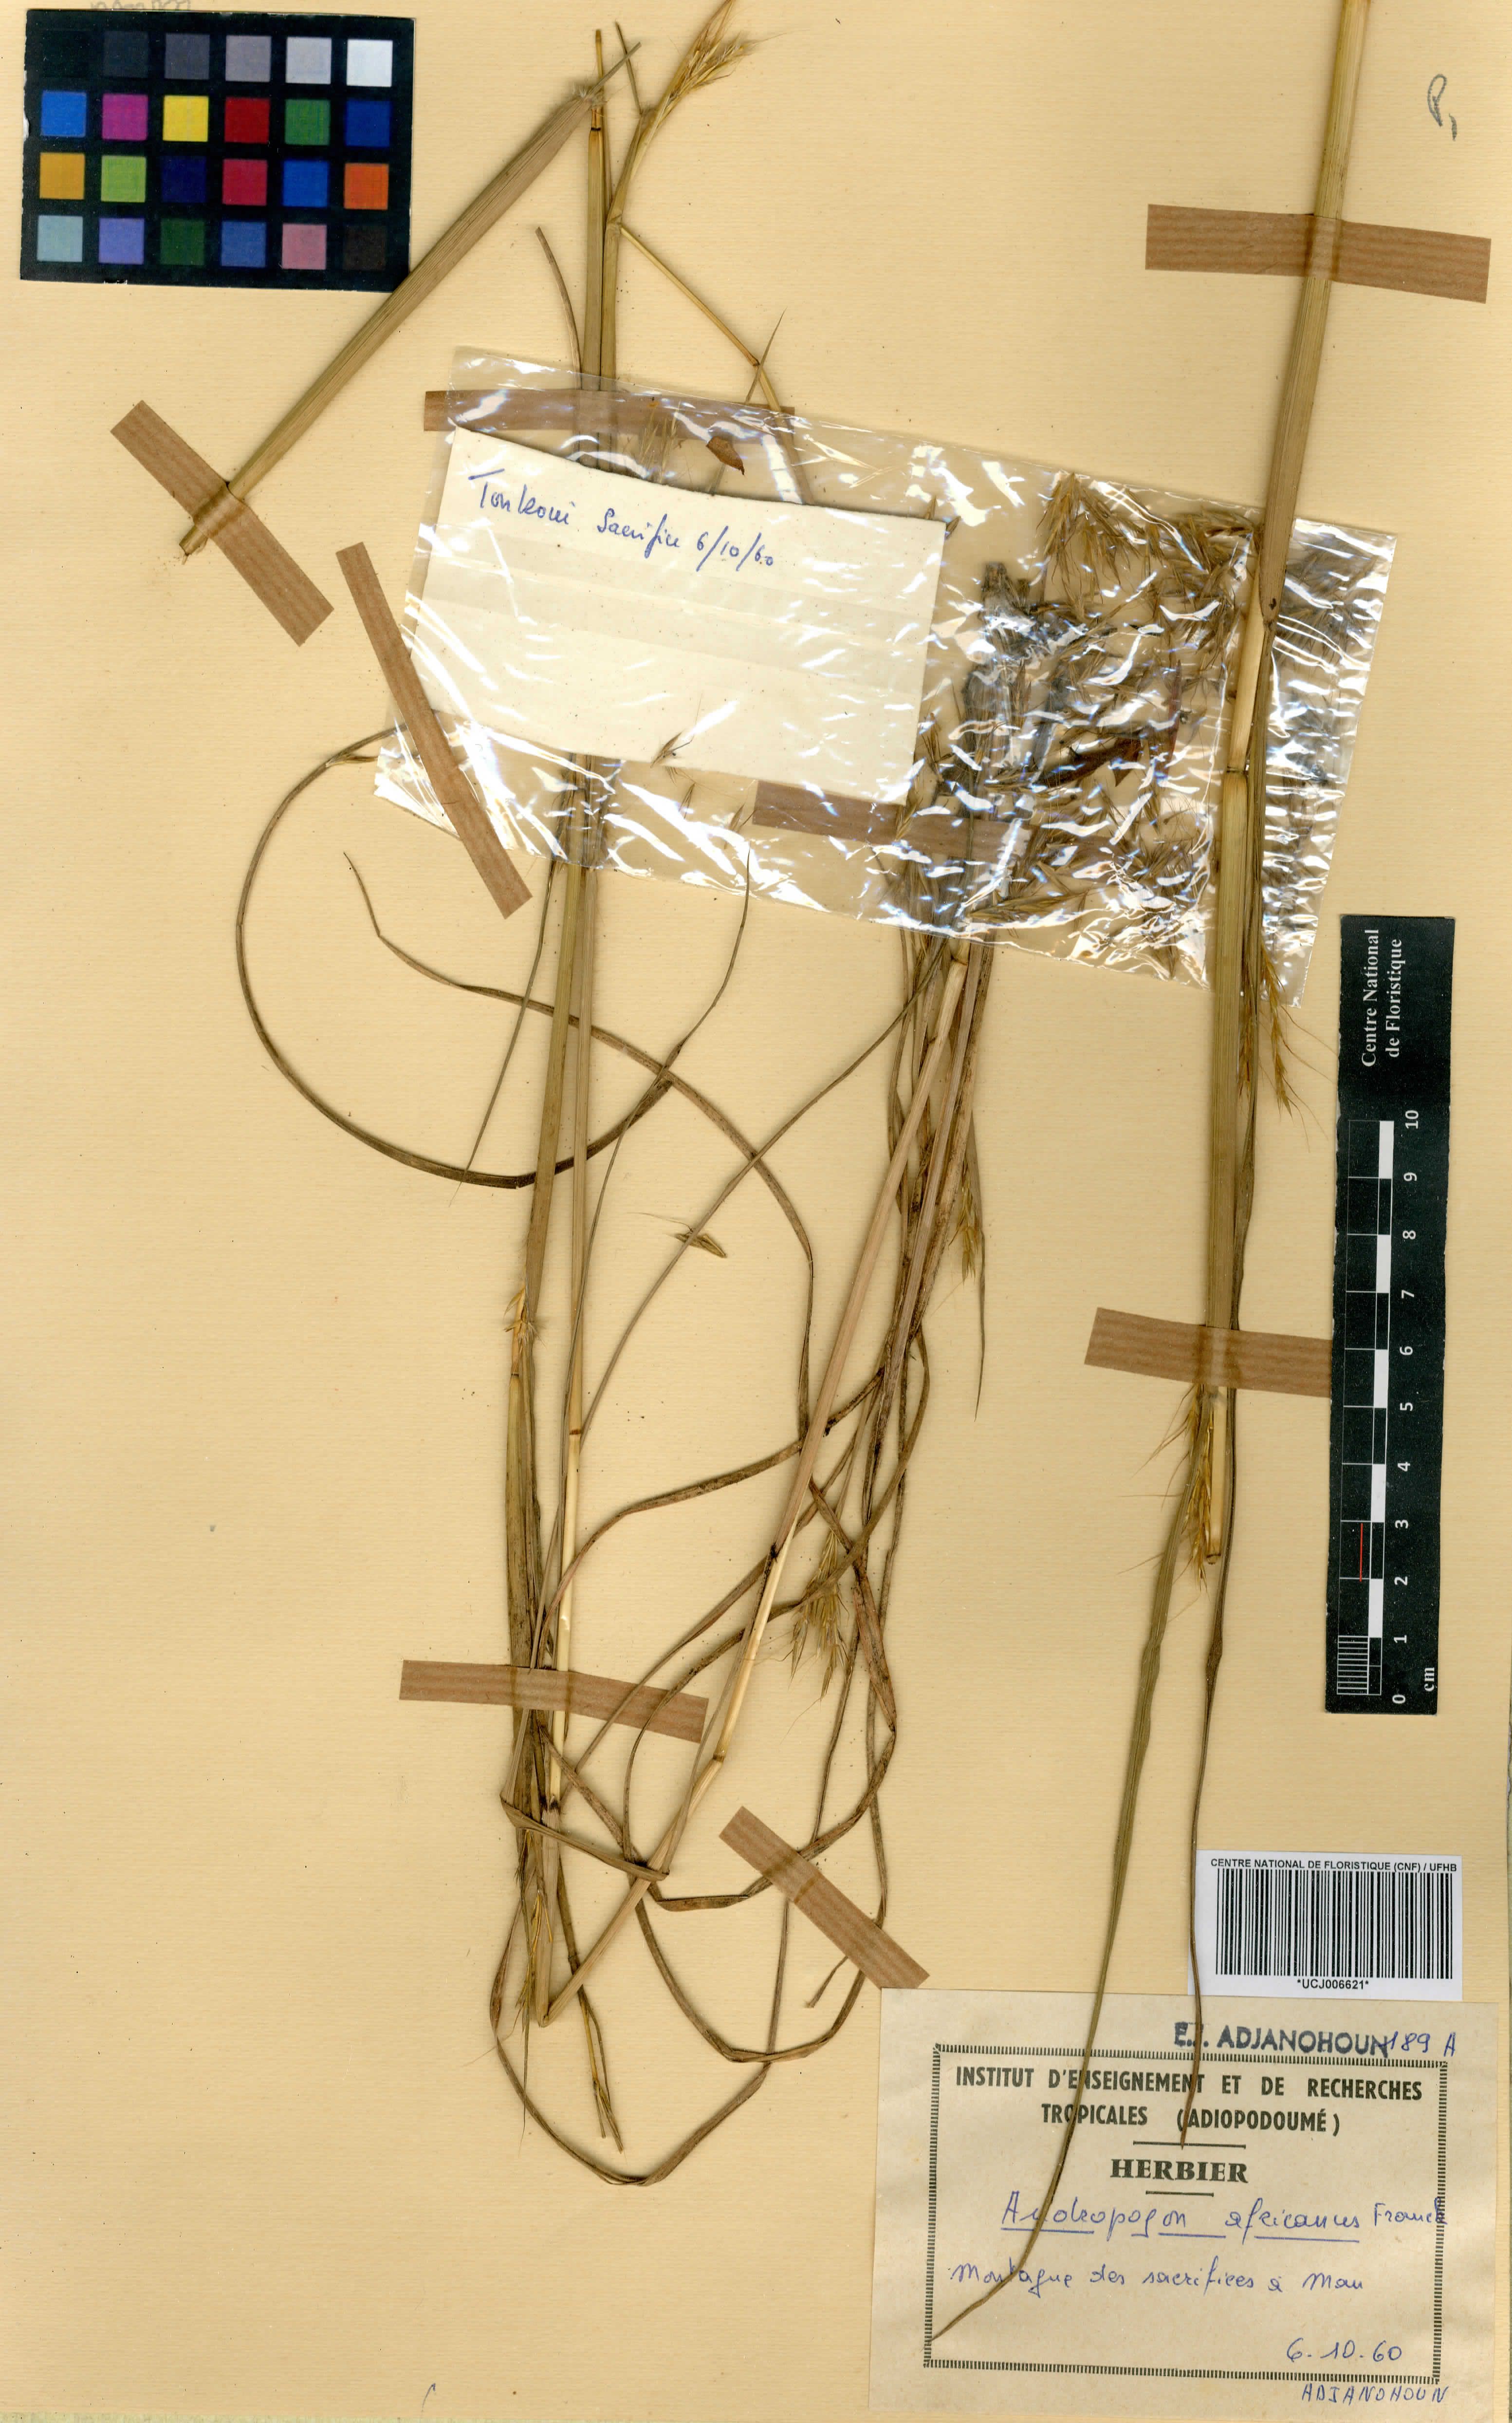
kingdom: Plantae
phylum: Tracheophyta
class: Liliopsida
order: Poales
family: Poaceae
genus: Andropogon
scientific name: Andropogon africanus
